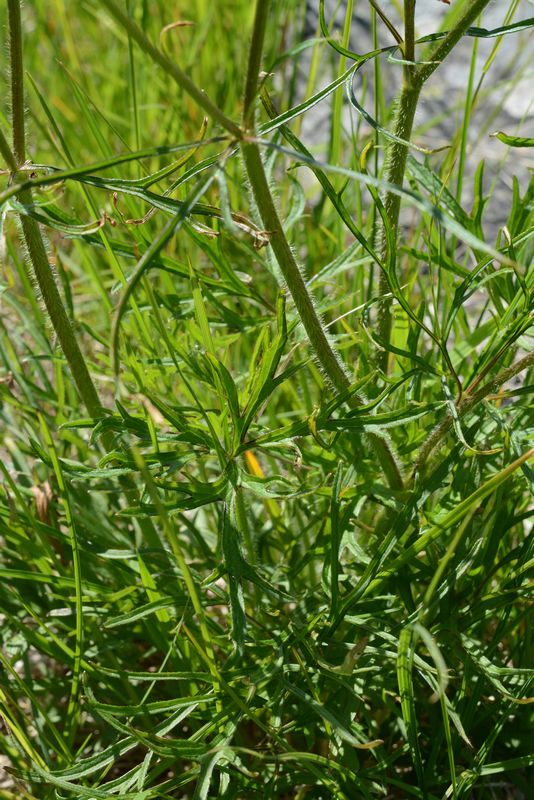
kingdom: Plantae
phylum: Tracheophyta
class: Magnoliopsida
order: Ranunculales
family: Ranunculaceae
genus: Ranunculus
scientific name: Ranunculus polyanthemos
